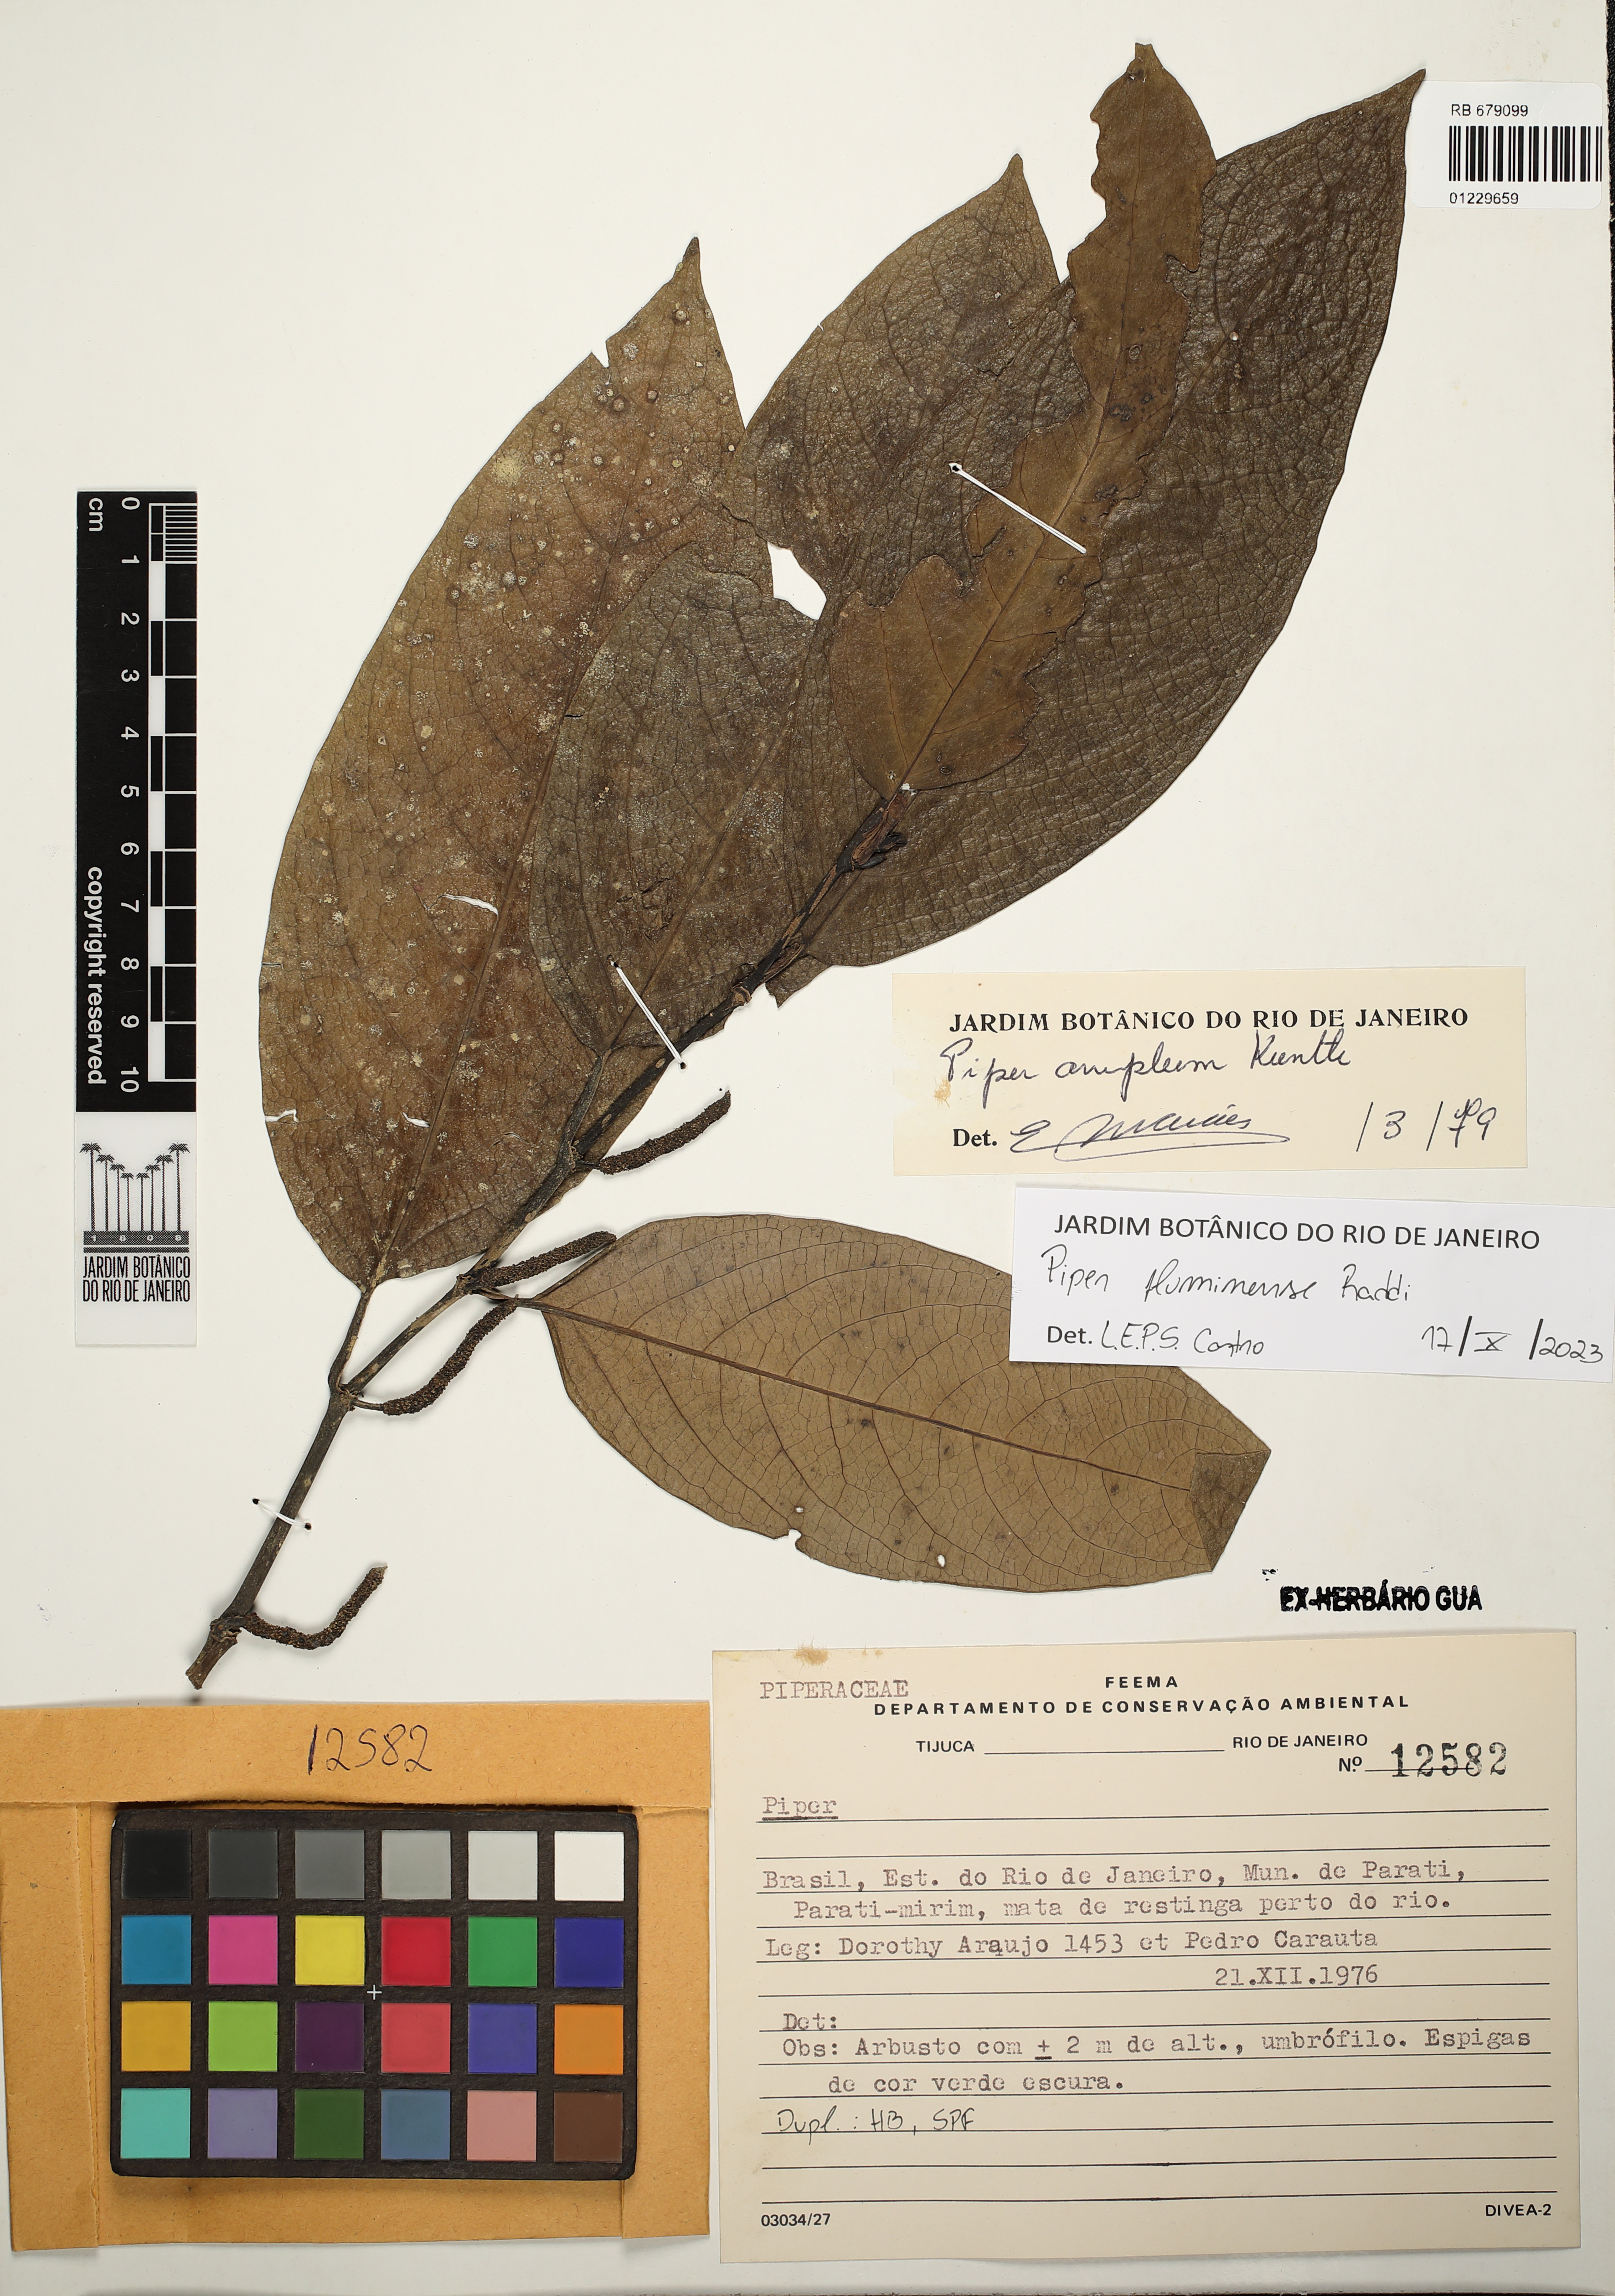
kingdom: Plantae
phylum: Tracheophyta
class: Magnoliopsida
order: Piperales
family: Piperaceae
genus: Piper
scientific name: Piper fluminense
